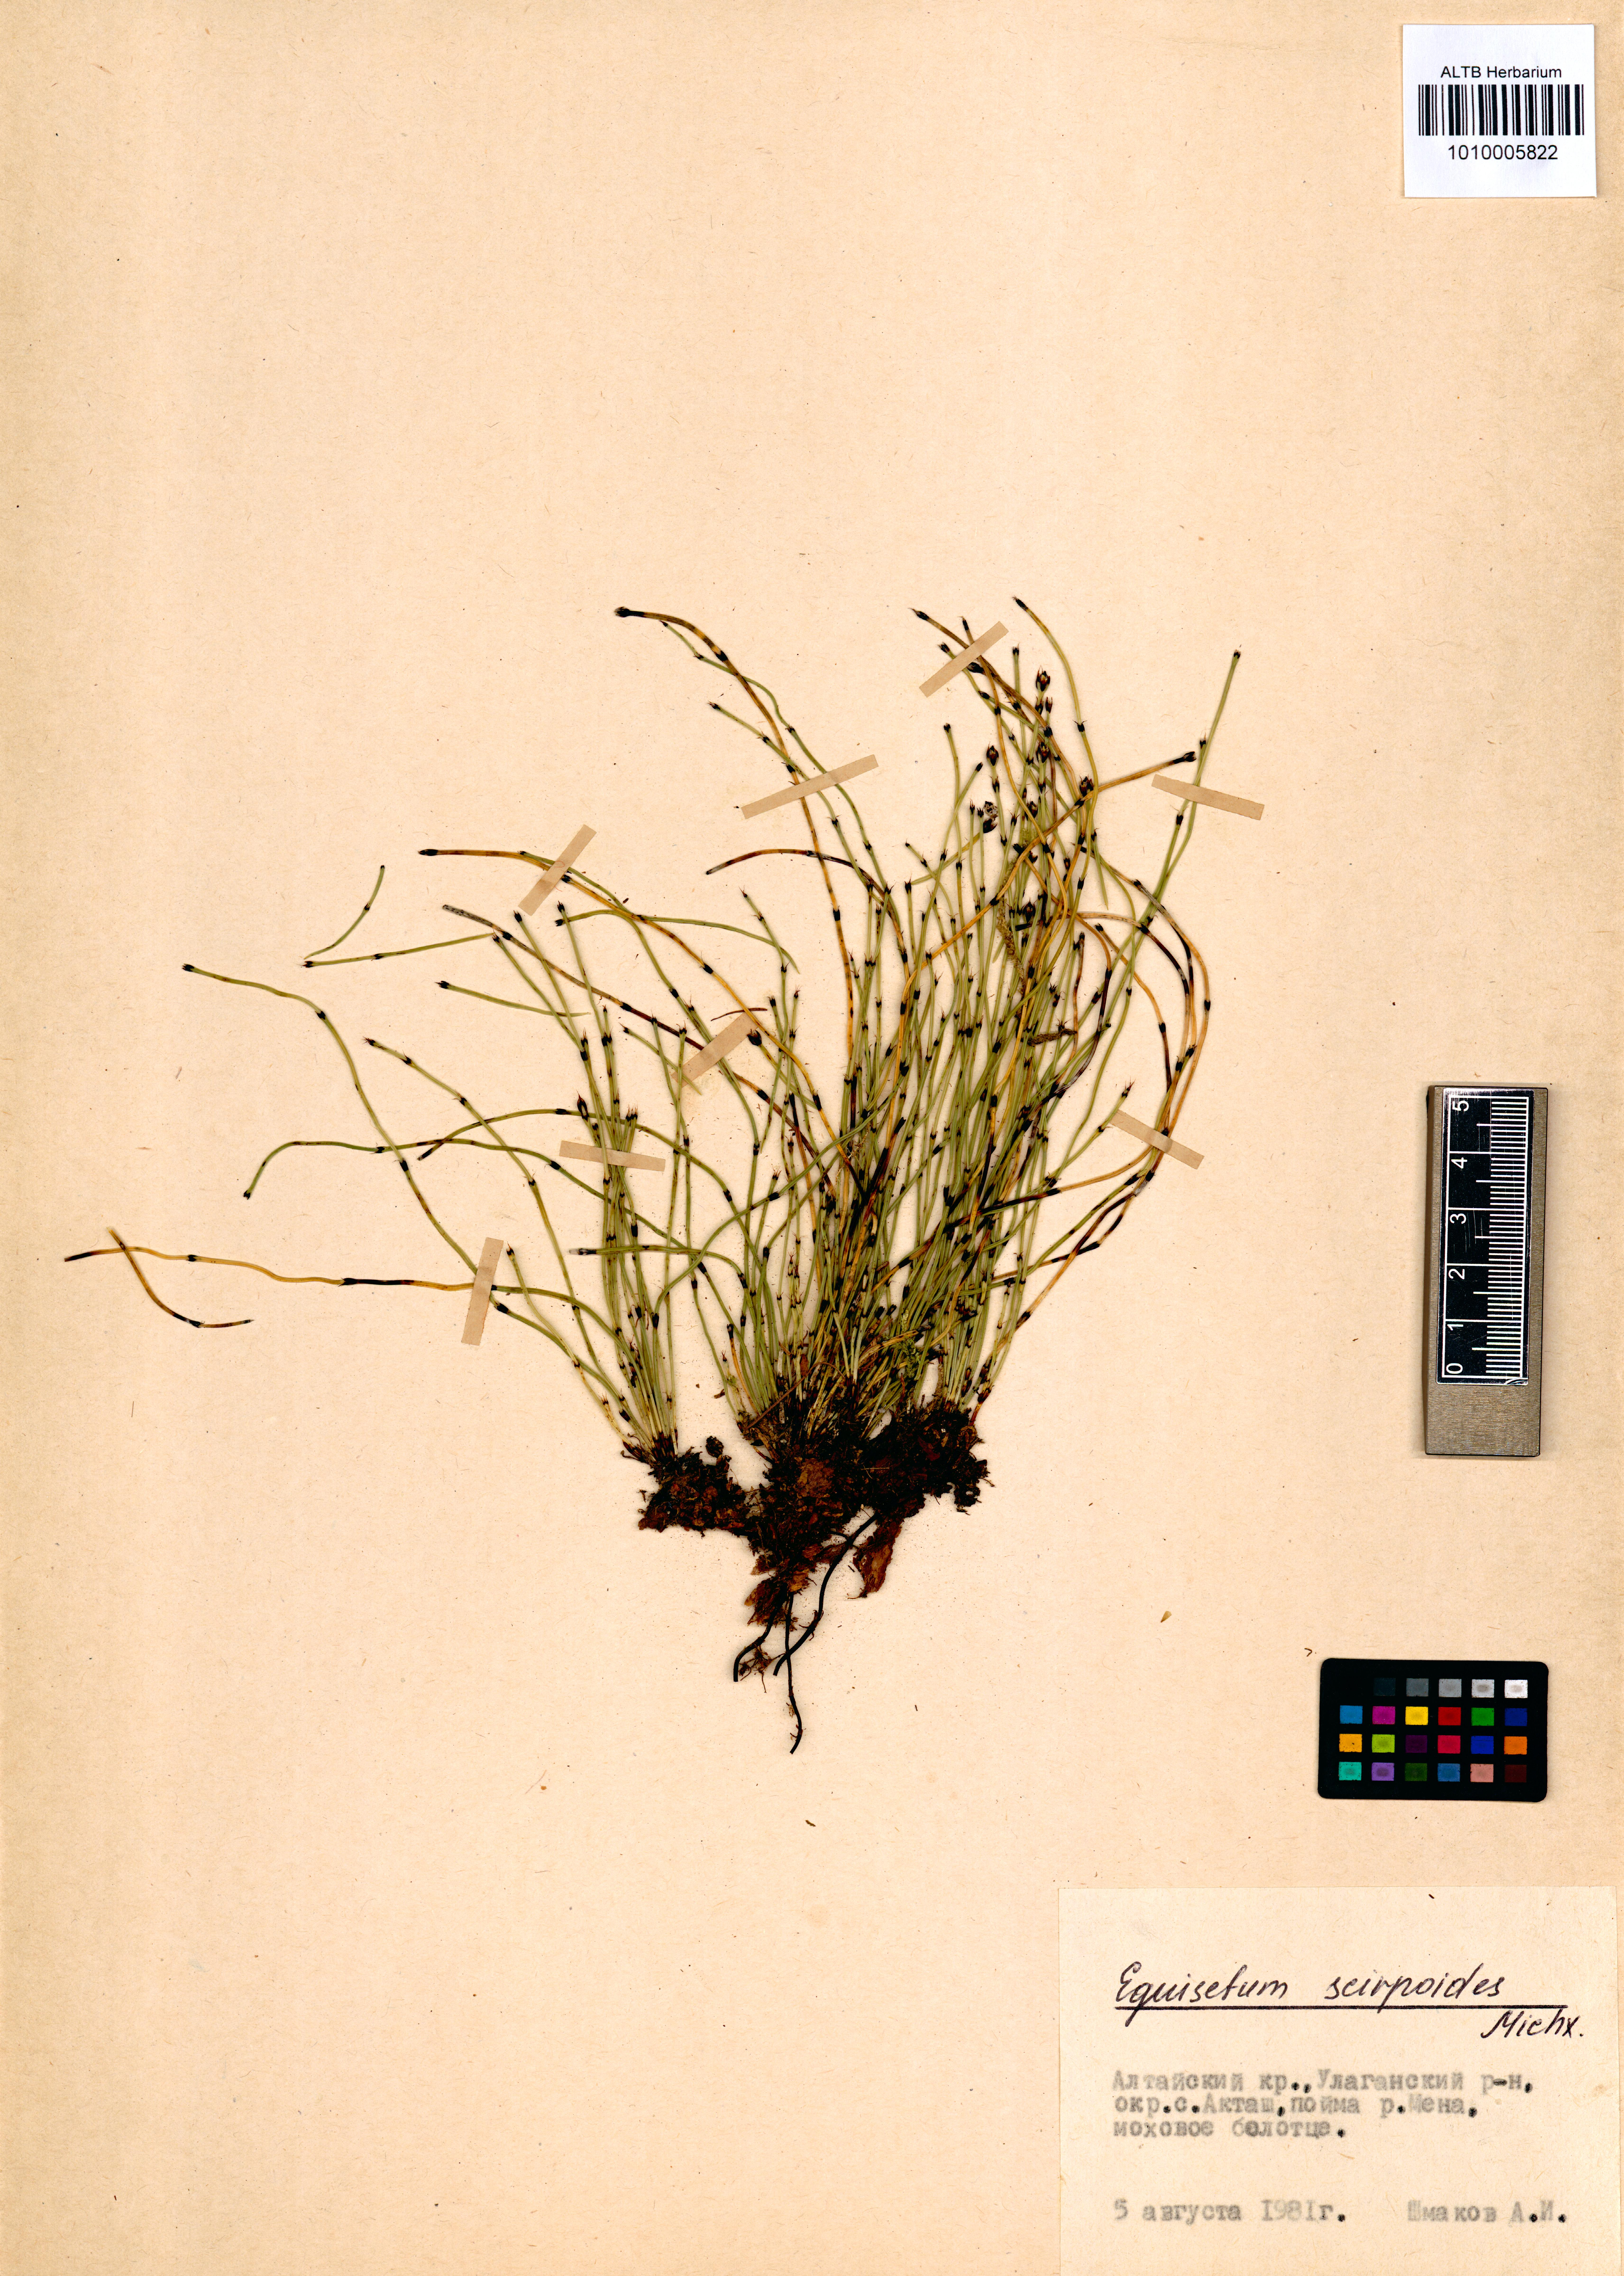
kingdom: Plantae
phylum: Tracheophyta
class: Polypodiopsida
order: Equisetales
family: Equisetaceae
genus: Equisetum
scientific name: Equisetum scirpoides
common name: Delicate horsetail
